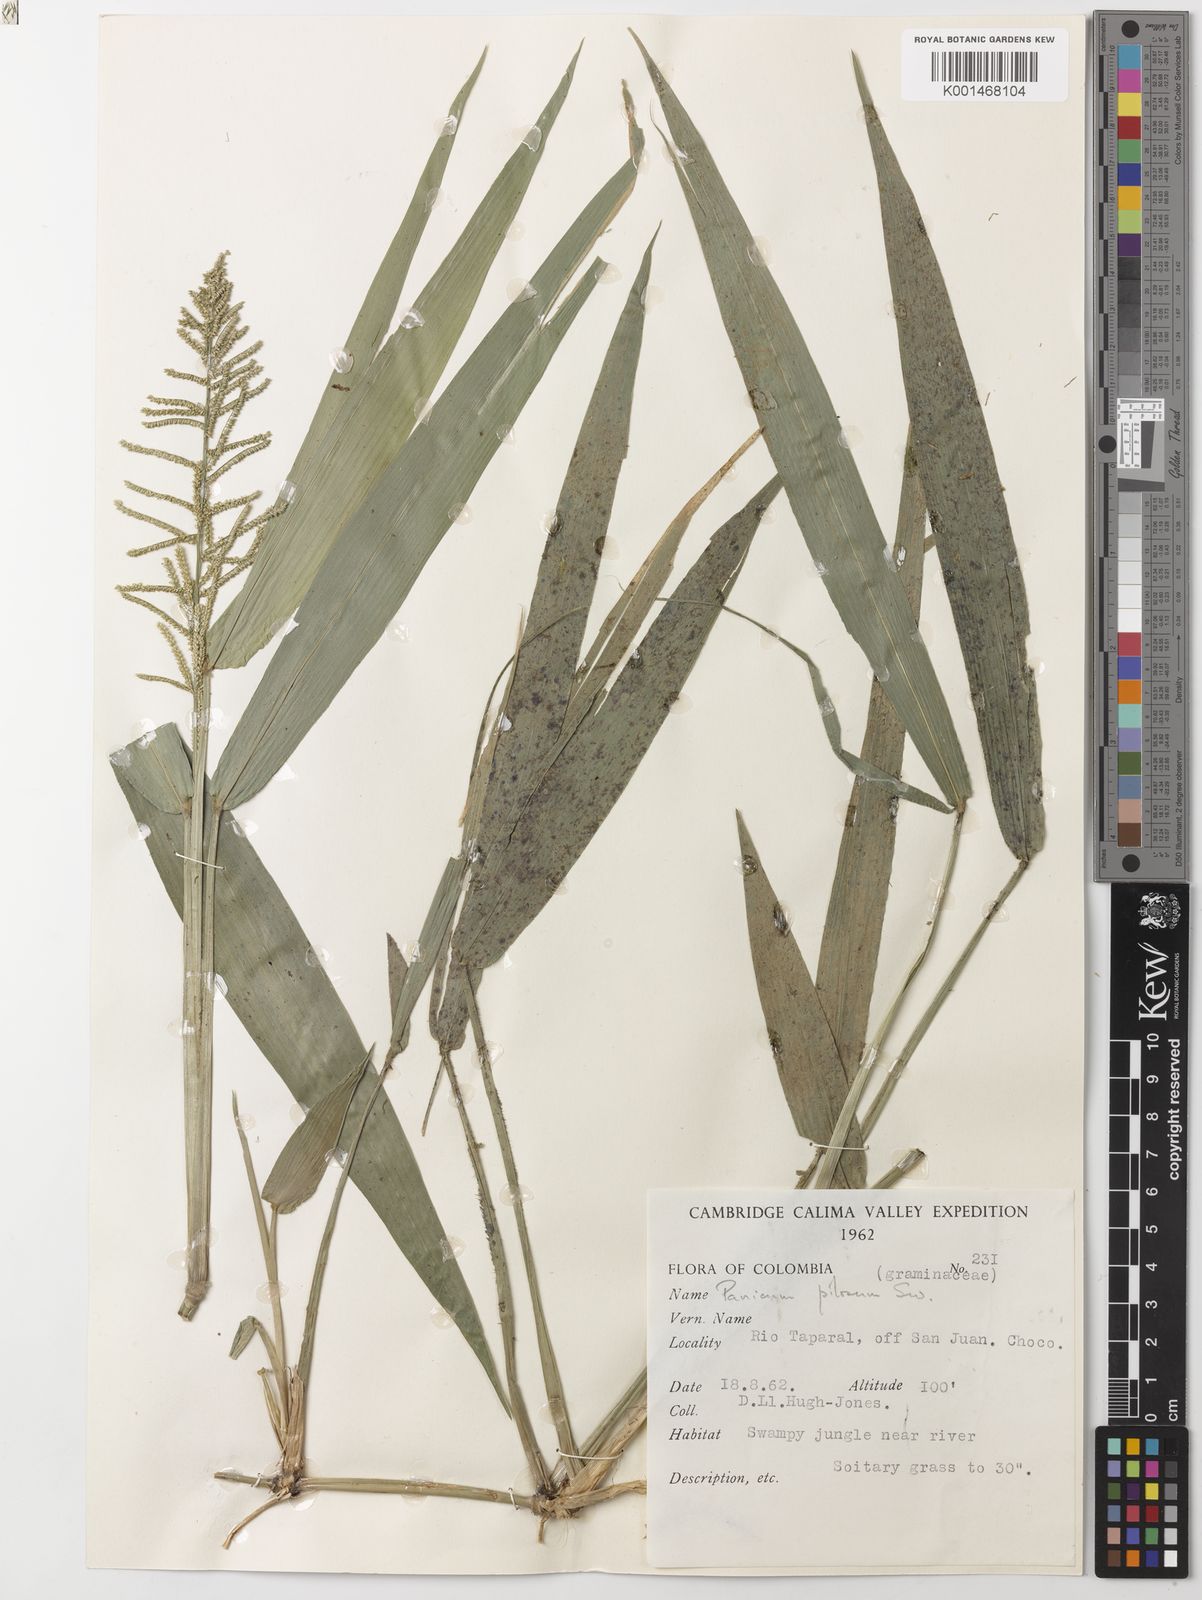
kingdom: Plantae
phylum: Tracheophyta
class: Liliopsida
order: Poales
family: Poaceae
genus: Rugoloa
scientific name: Rugoloa pilosa
